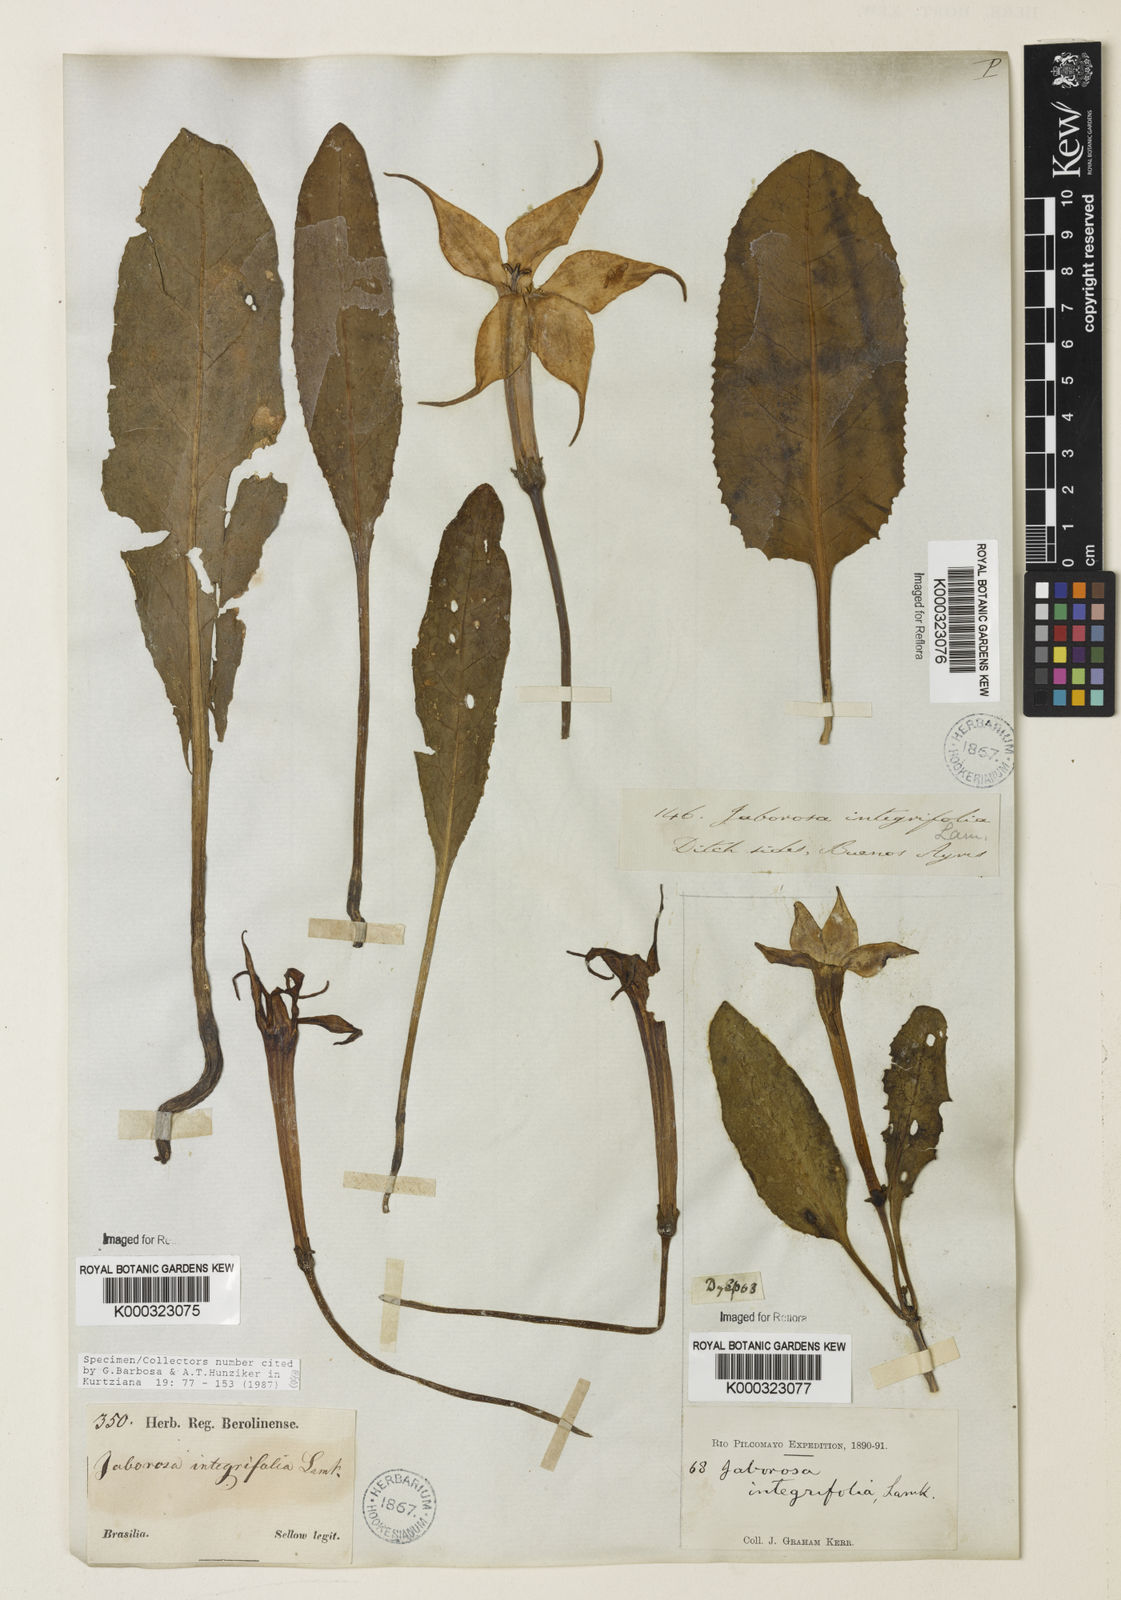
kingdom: Plantae
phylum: Tracheophyta
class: Magnoliopsida
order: Solanales
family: Solanaceae
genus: Jaborosa
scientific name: Jaborosa integrifolia
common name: Springblossom
